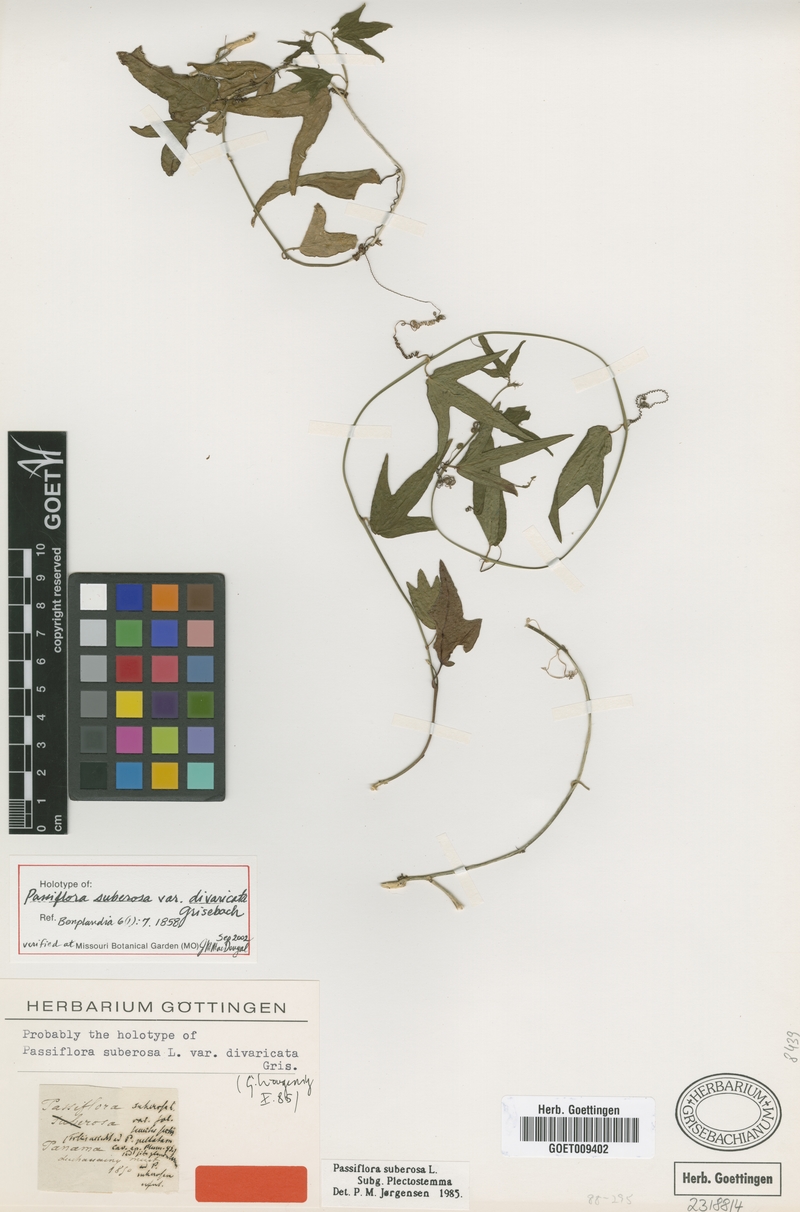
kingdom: Plantae
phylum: Tracheophyta
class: Magnoliopsida
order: Malpighiales
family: Passifloraceae
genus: Passiflora
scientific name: Passiflora suberosa
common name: Wild passionfruit
